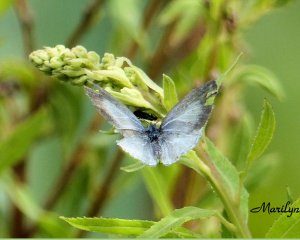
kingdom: Animalia
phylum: Arthropoda
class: Insecta
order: Lepidoptera
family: Lycaenidae
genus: Cyaniris
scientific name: Cyaniris neglecta
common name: Summer Azure
